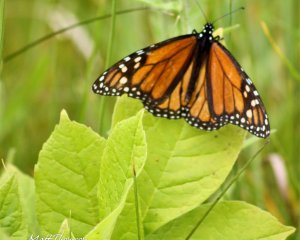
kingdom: Animalia
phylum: Arthropoda
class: Insecta
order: Lepidoptera
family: Nymphalidae
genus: Danaus
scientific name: Danaus plexippus
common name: Monarch
